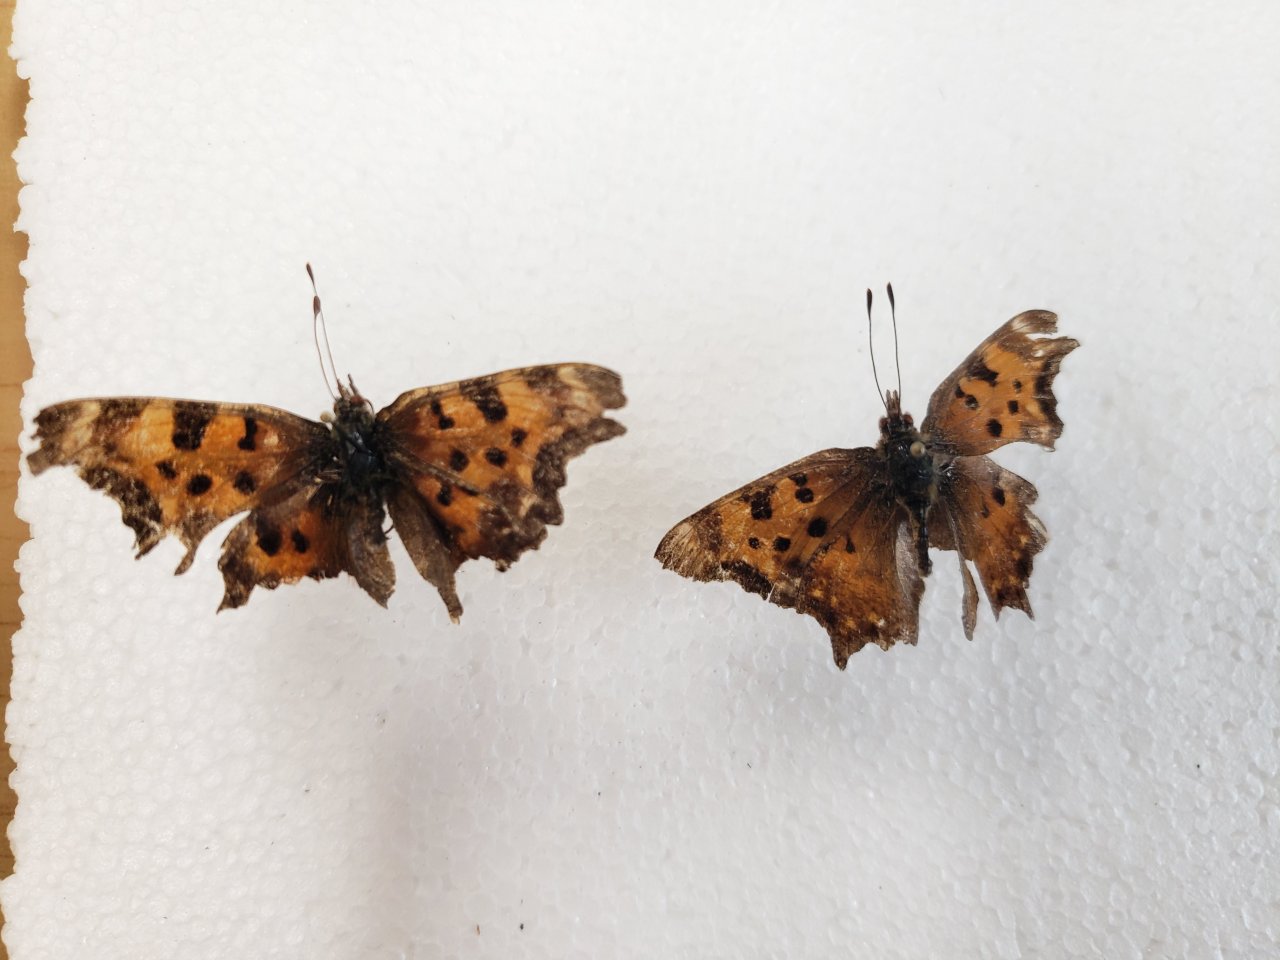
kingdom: Animalia
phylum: Arthropoda
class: Insecta
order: Lepidoptera
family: Nymphalidae
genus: Polygonia
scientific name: Polygonia gracilis
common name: Hoary Comma
